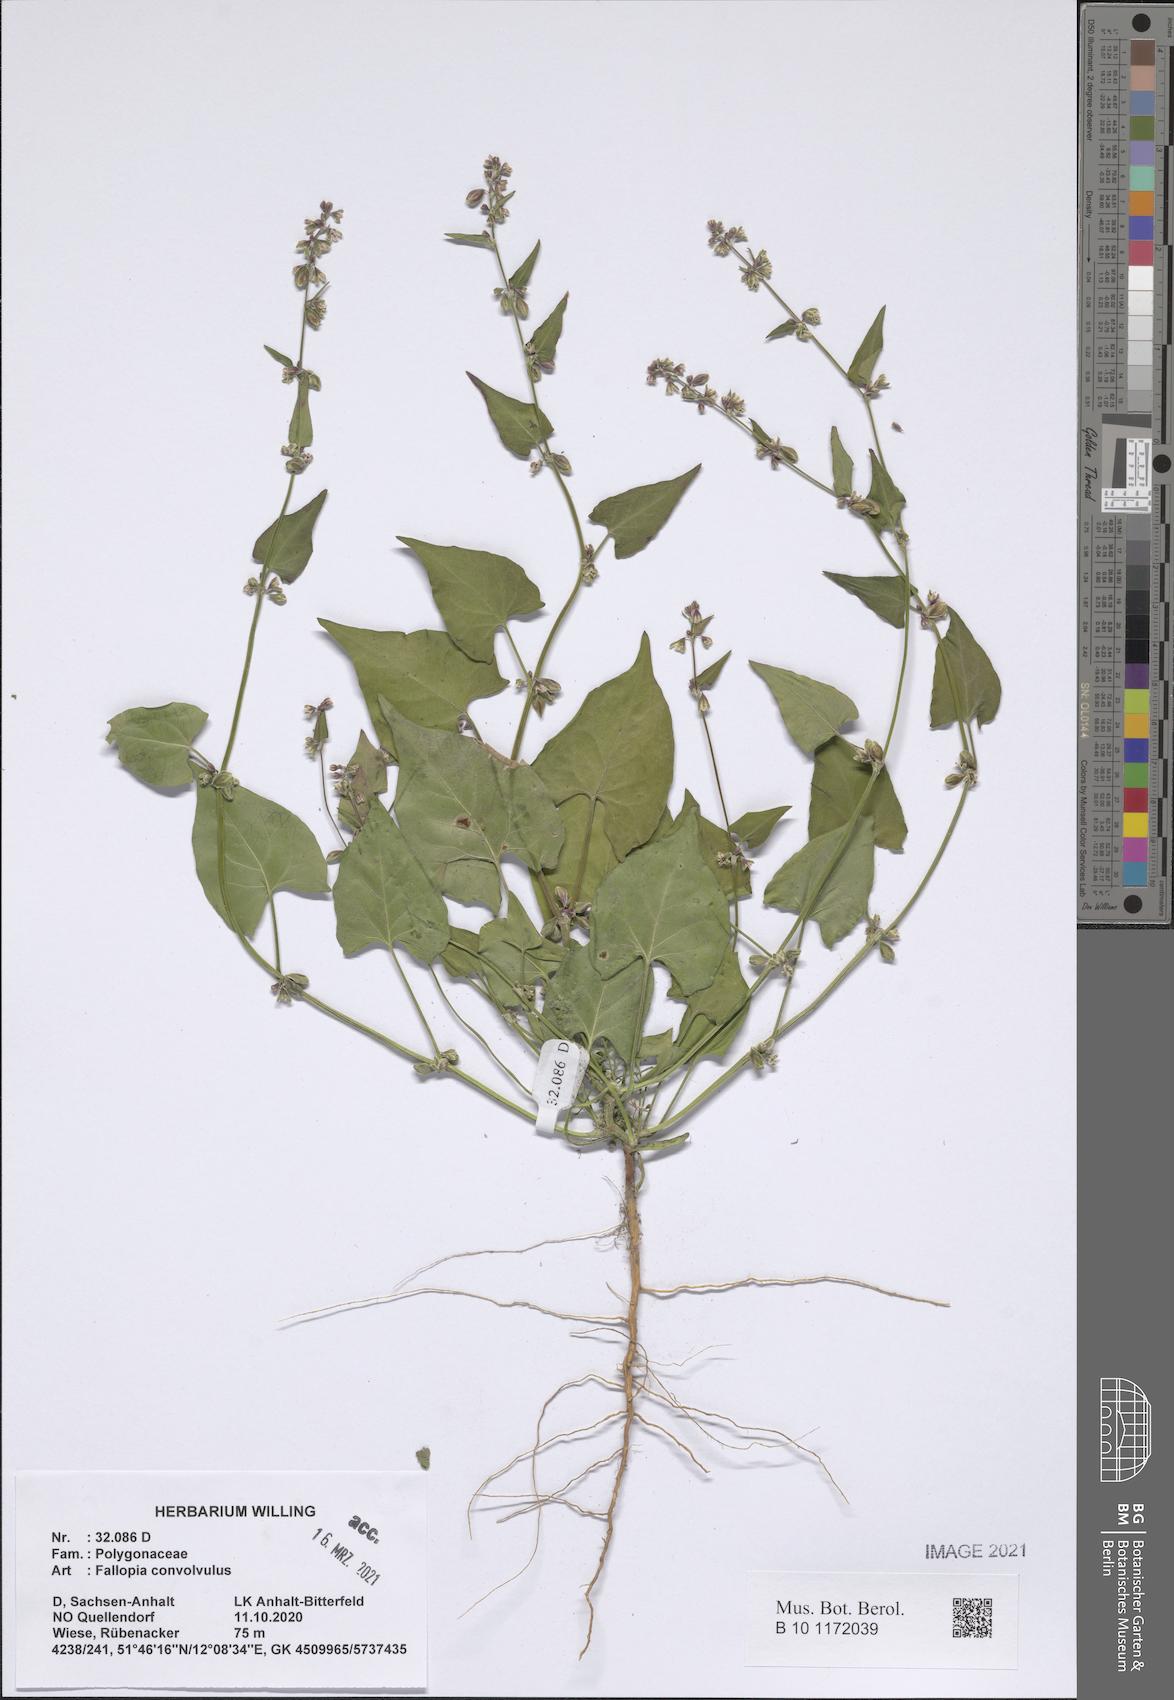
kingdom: Plantae
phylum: Tracheophyta
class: Magnoliopsida
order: Caryophyllales
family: Polygonaceae
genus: Fallopia
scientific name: Fallopia convolvulus
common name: Black bindweed
